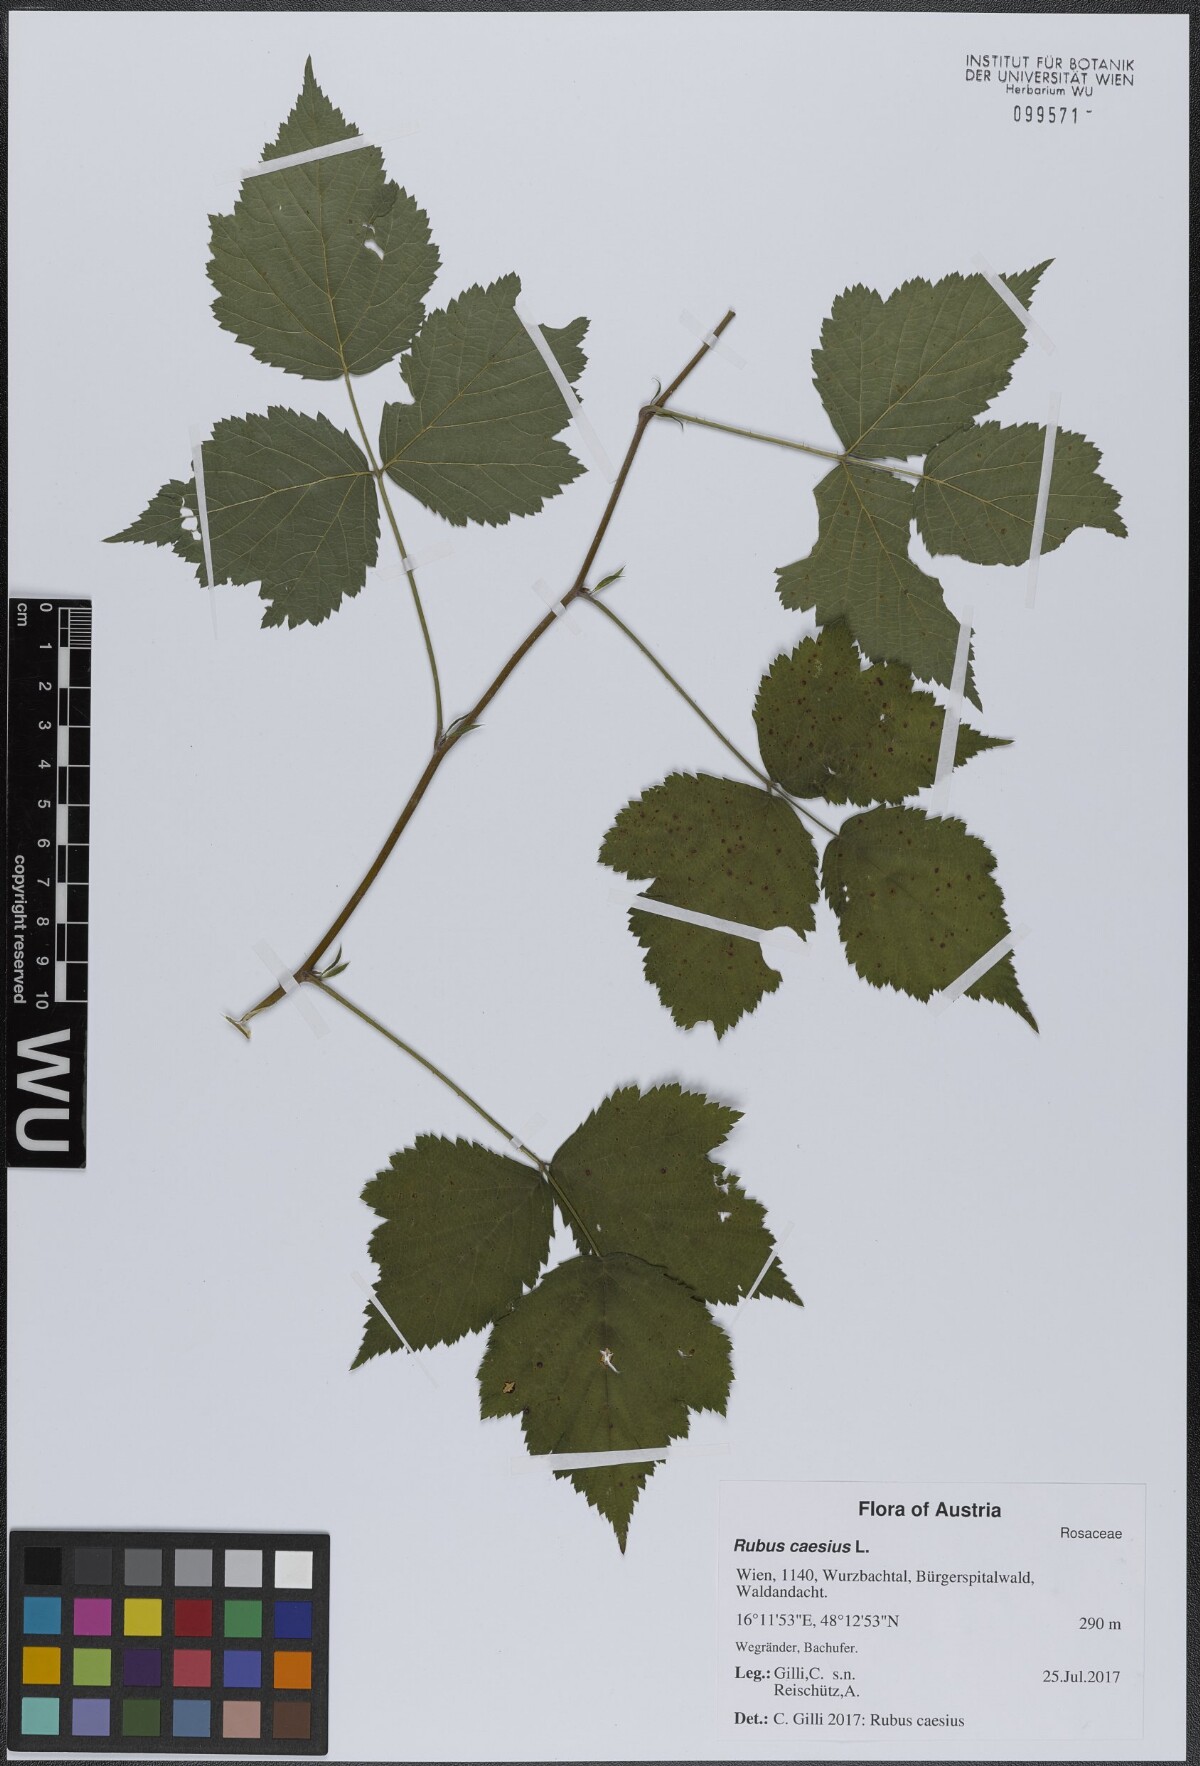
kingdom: Plantae
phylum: Tracheophyta
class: Magnoliopsida
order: Rosales
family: Rosaceae
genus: Rubus
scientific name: Rubus caesius
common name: Dewberry
